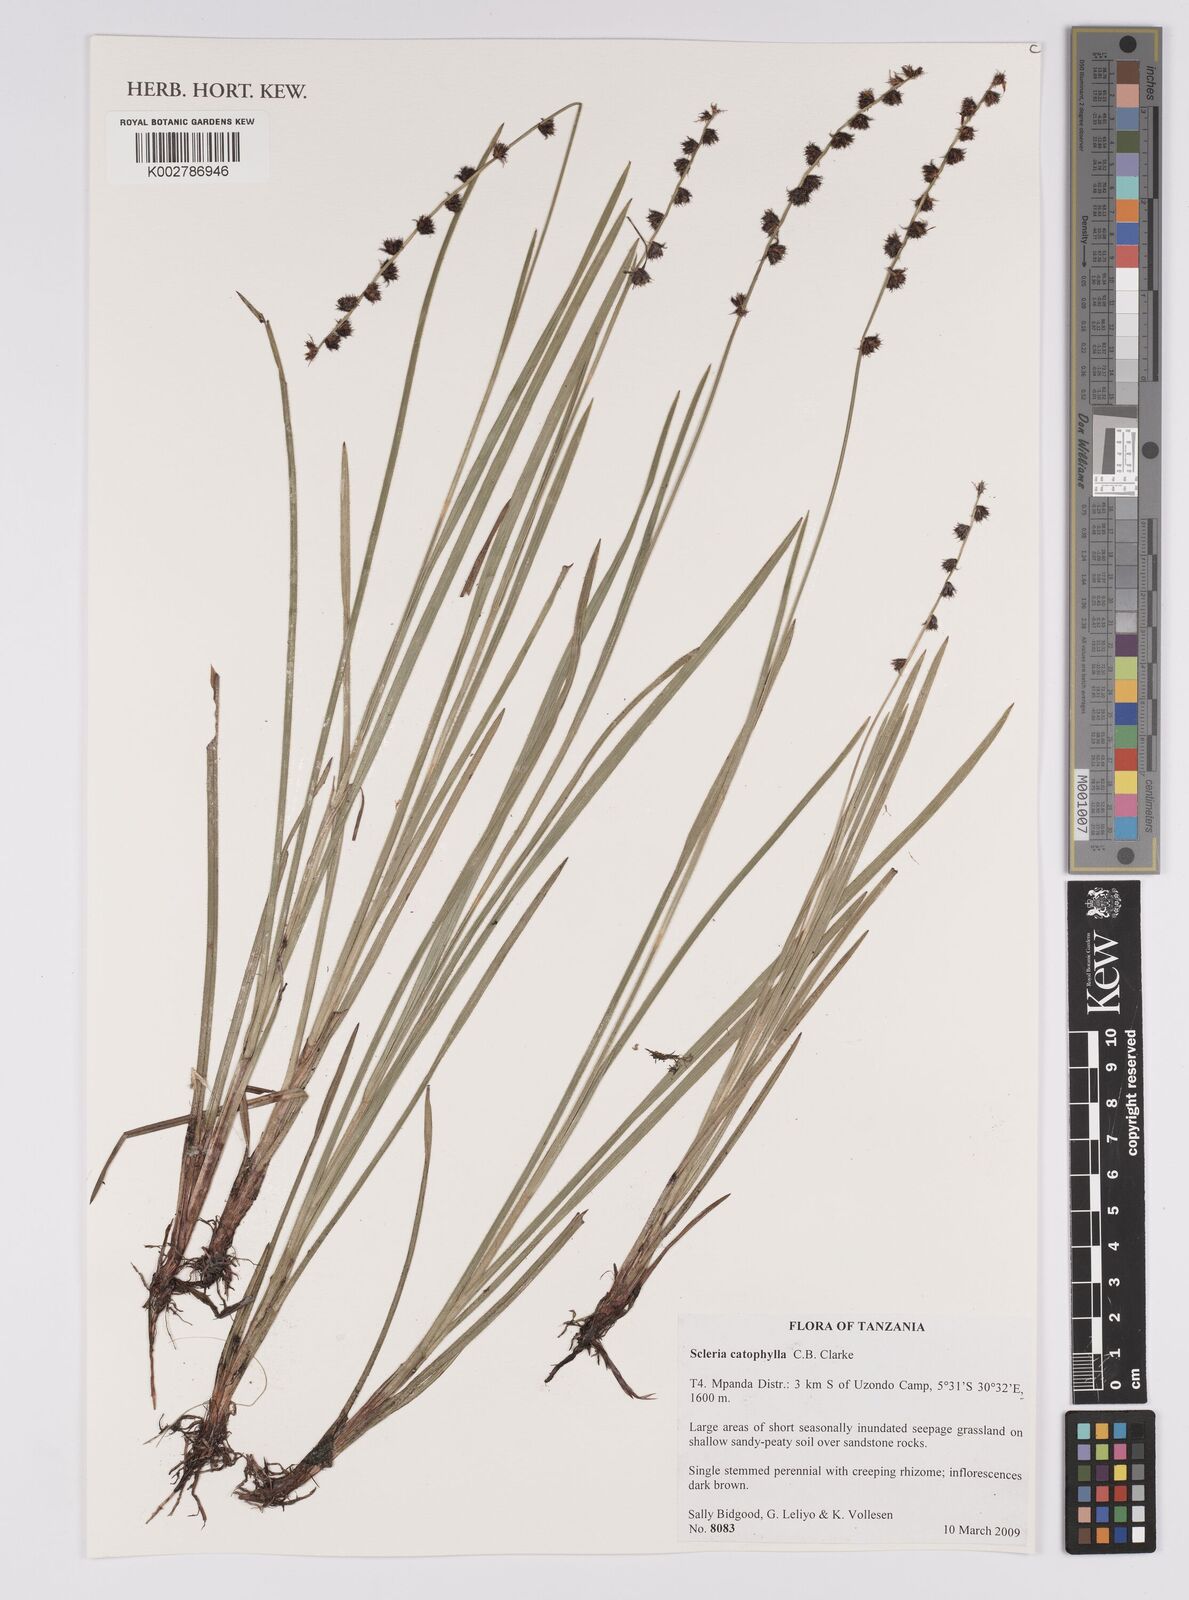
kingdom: Plantae
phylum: Tracheophyta
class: Liliopsida
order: Poales
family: Cyperaceae
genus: Scleria
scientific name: Scleria catophylla
